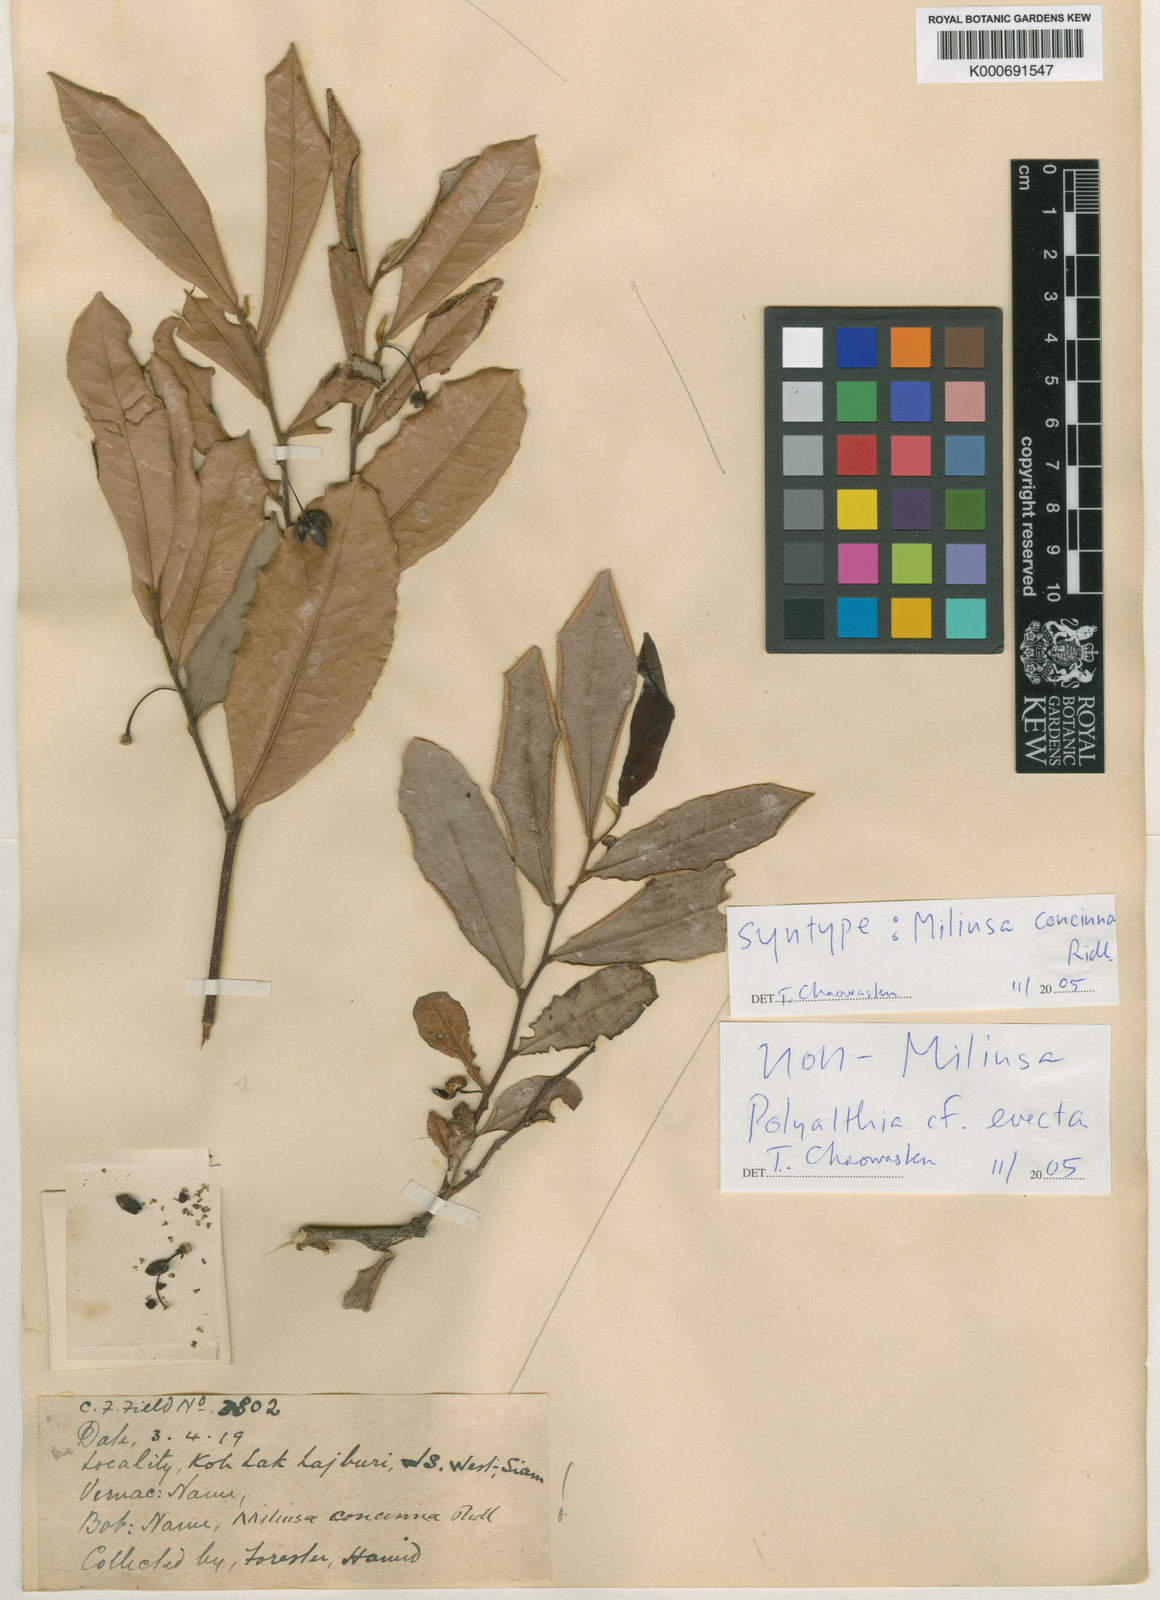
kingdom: Plantae
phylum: Tracheophyta
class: Magnoliopsida
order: Magnoliales
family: Annonaceae
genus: Polyalthia
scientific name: Polyalthia
